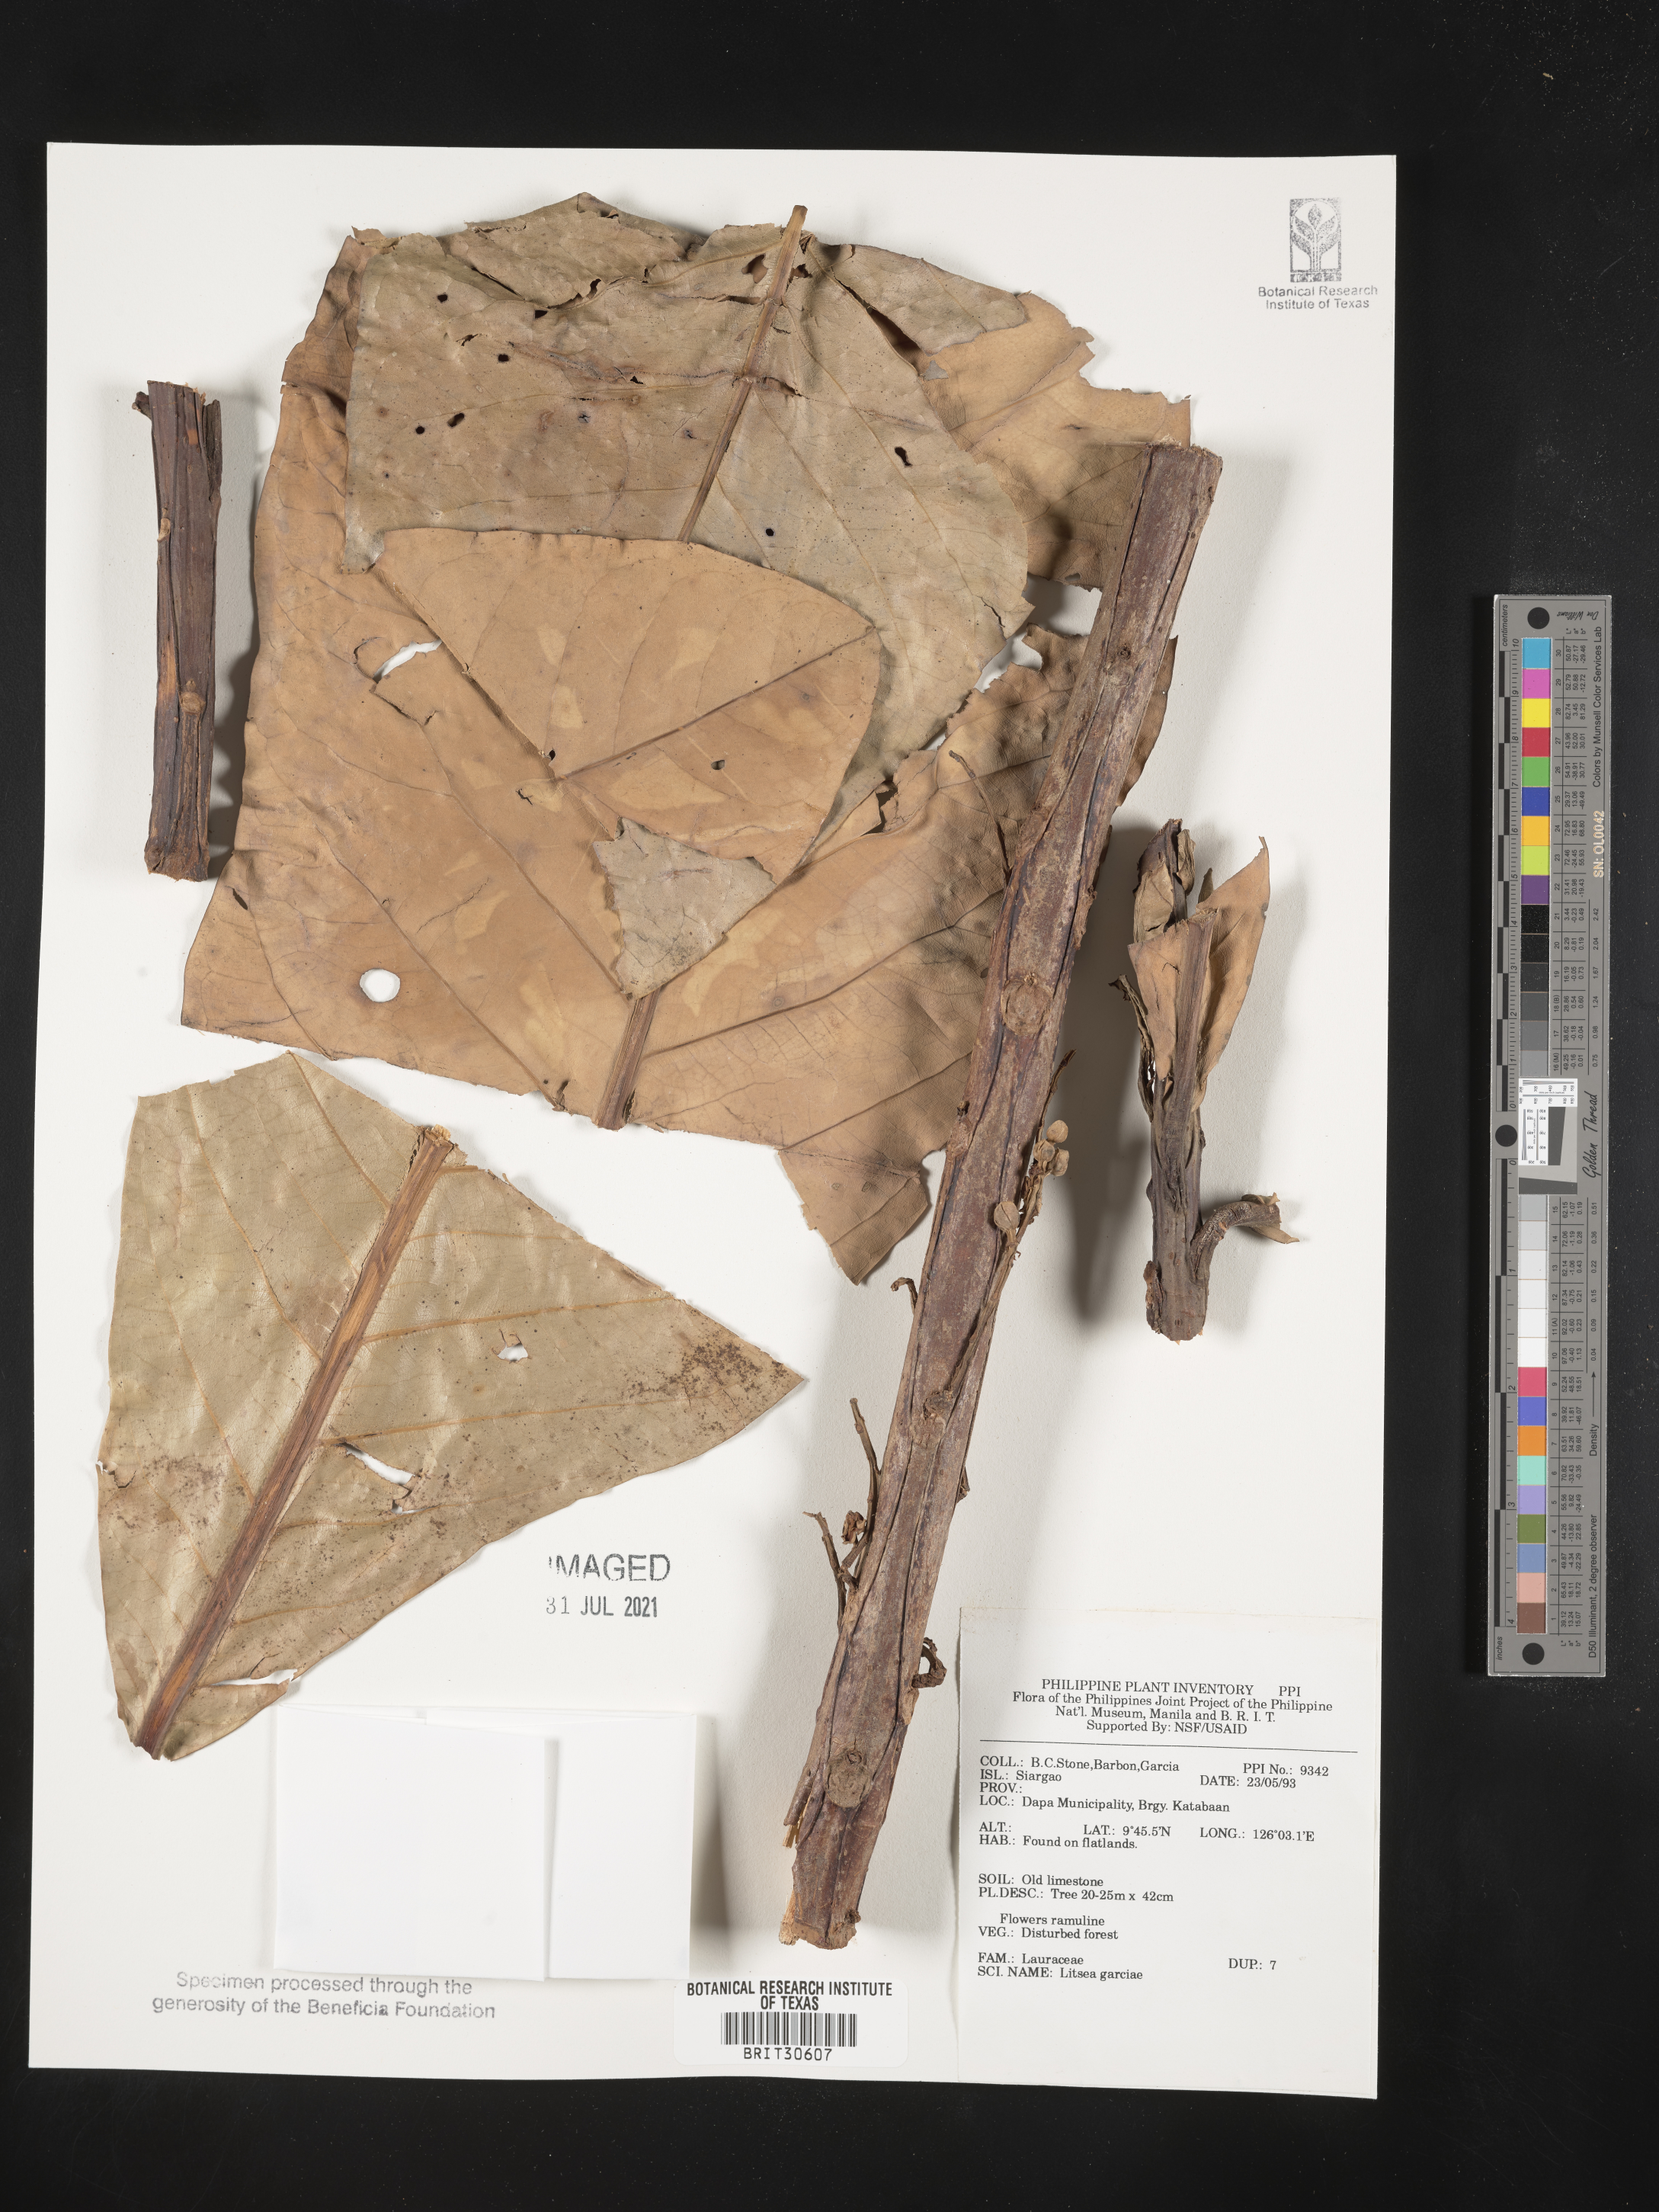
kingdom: Plantae
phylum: Tracheophyta
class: Magnoliopsida
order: Laurales
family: Lauraceae
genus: Litsea
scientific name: Litsea garciae
